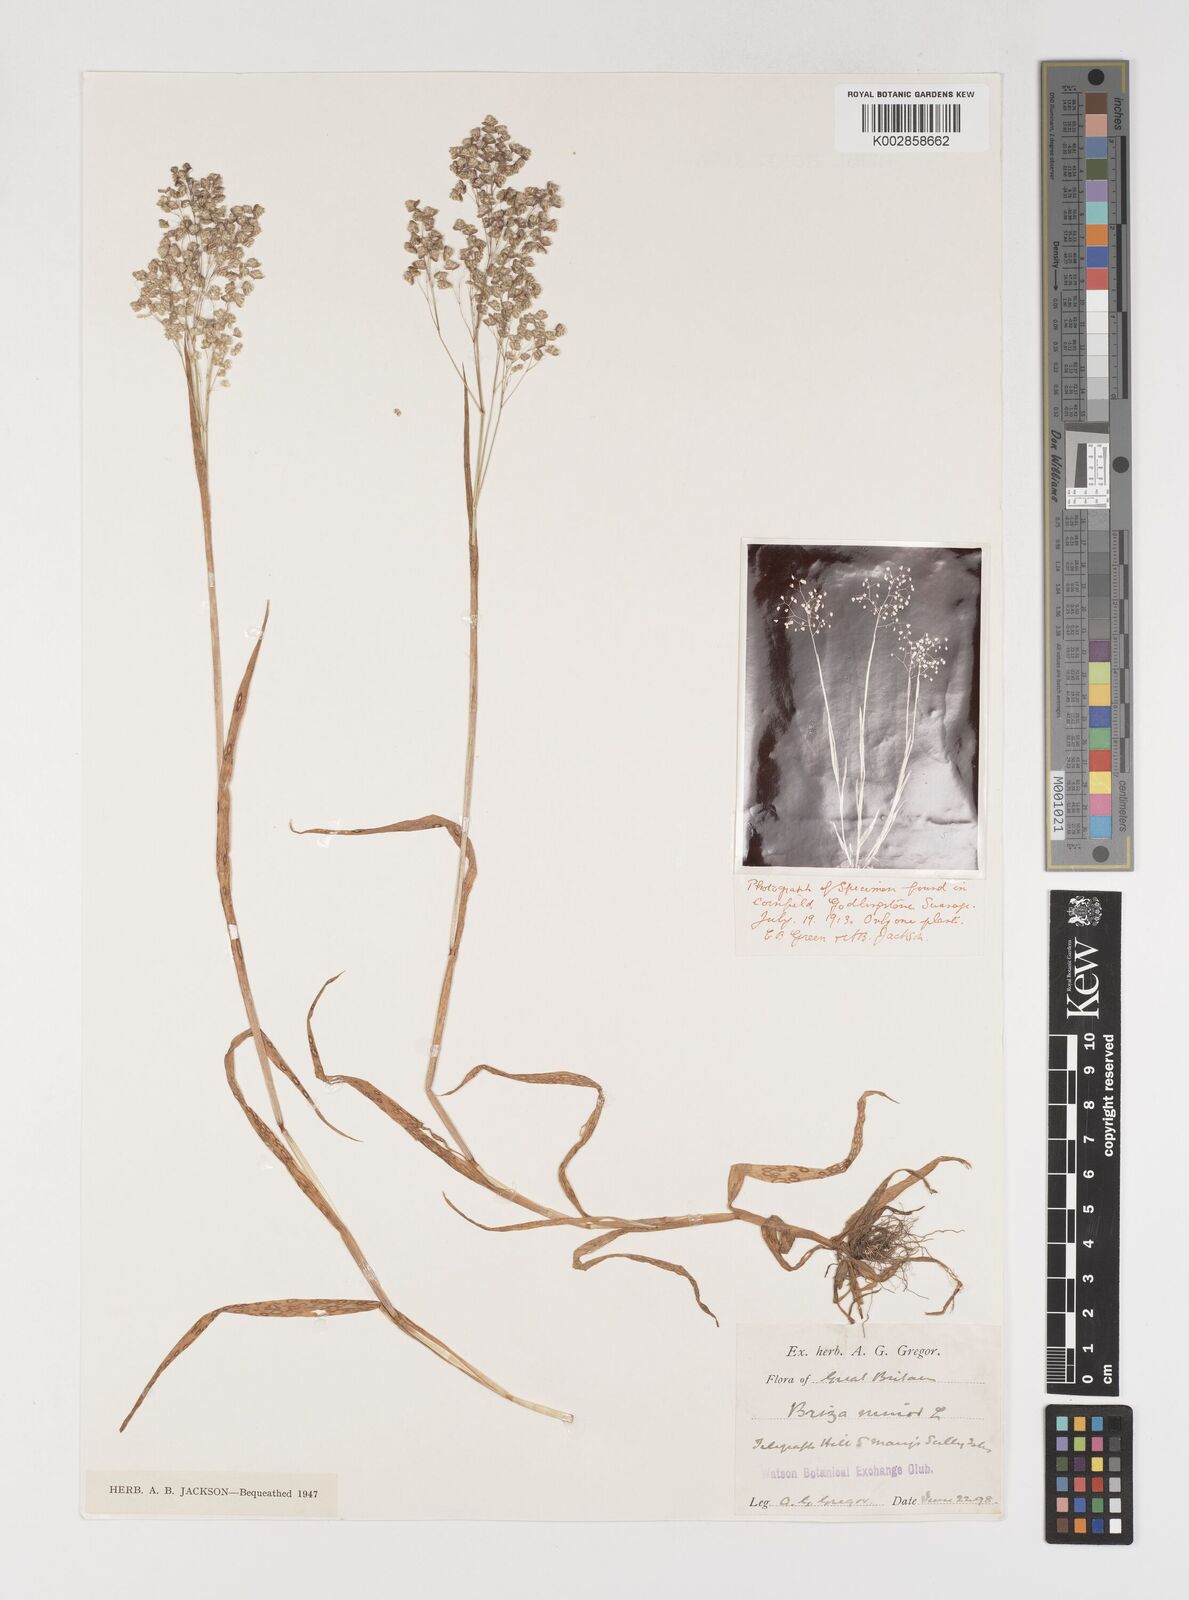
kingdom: Plantae
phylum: Tracheophyta
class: Liliopsida
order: Poales
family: Poaceae
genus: Briza
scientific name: Briza minor
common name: Lesser quaking-grass
